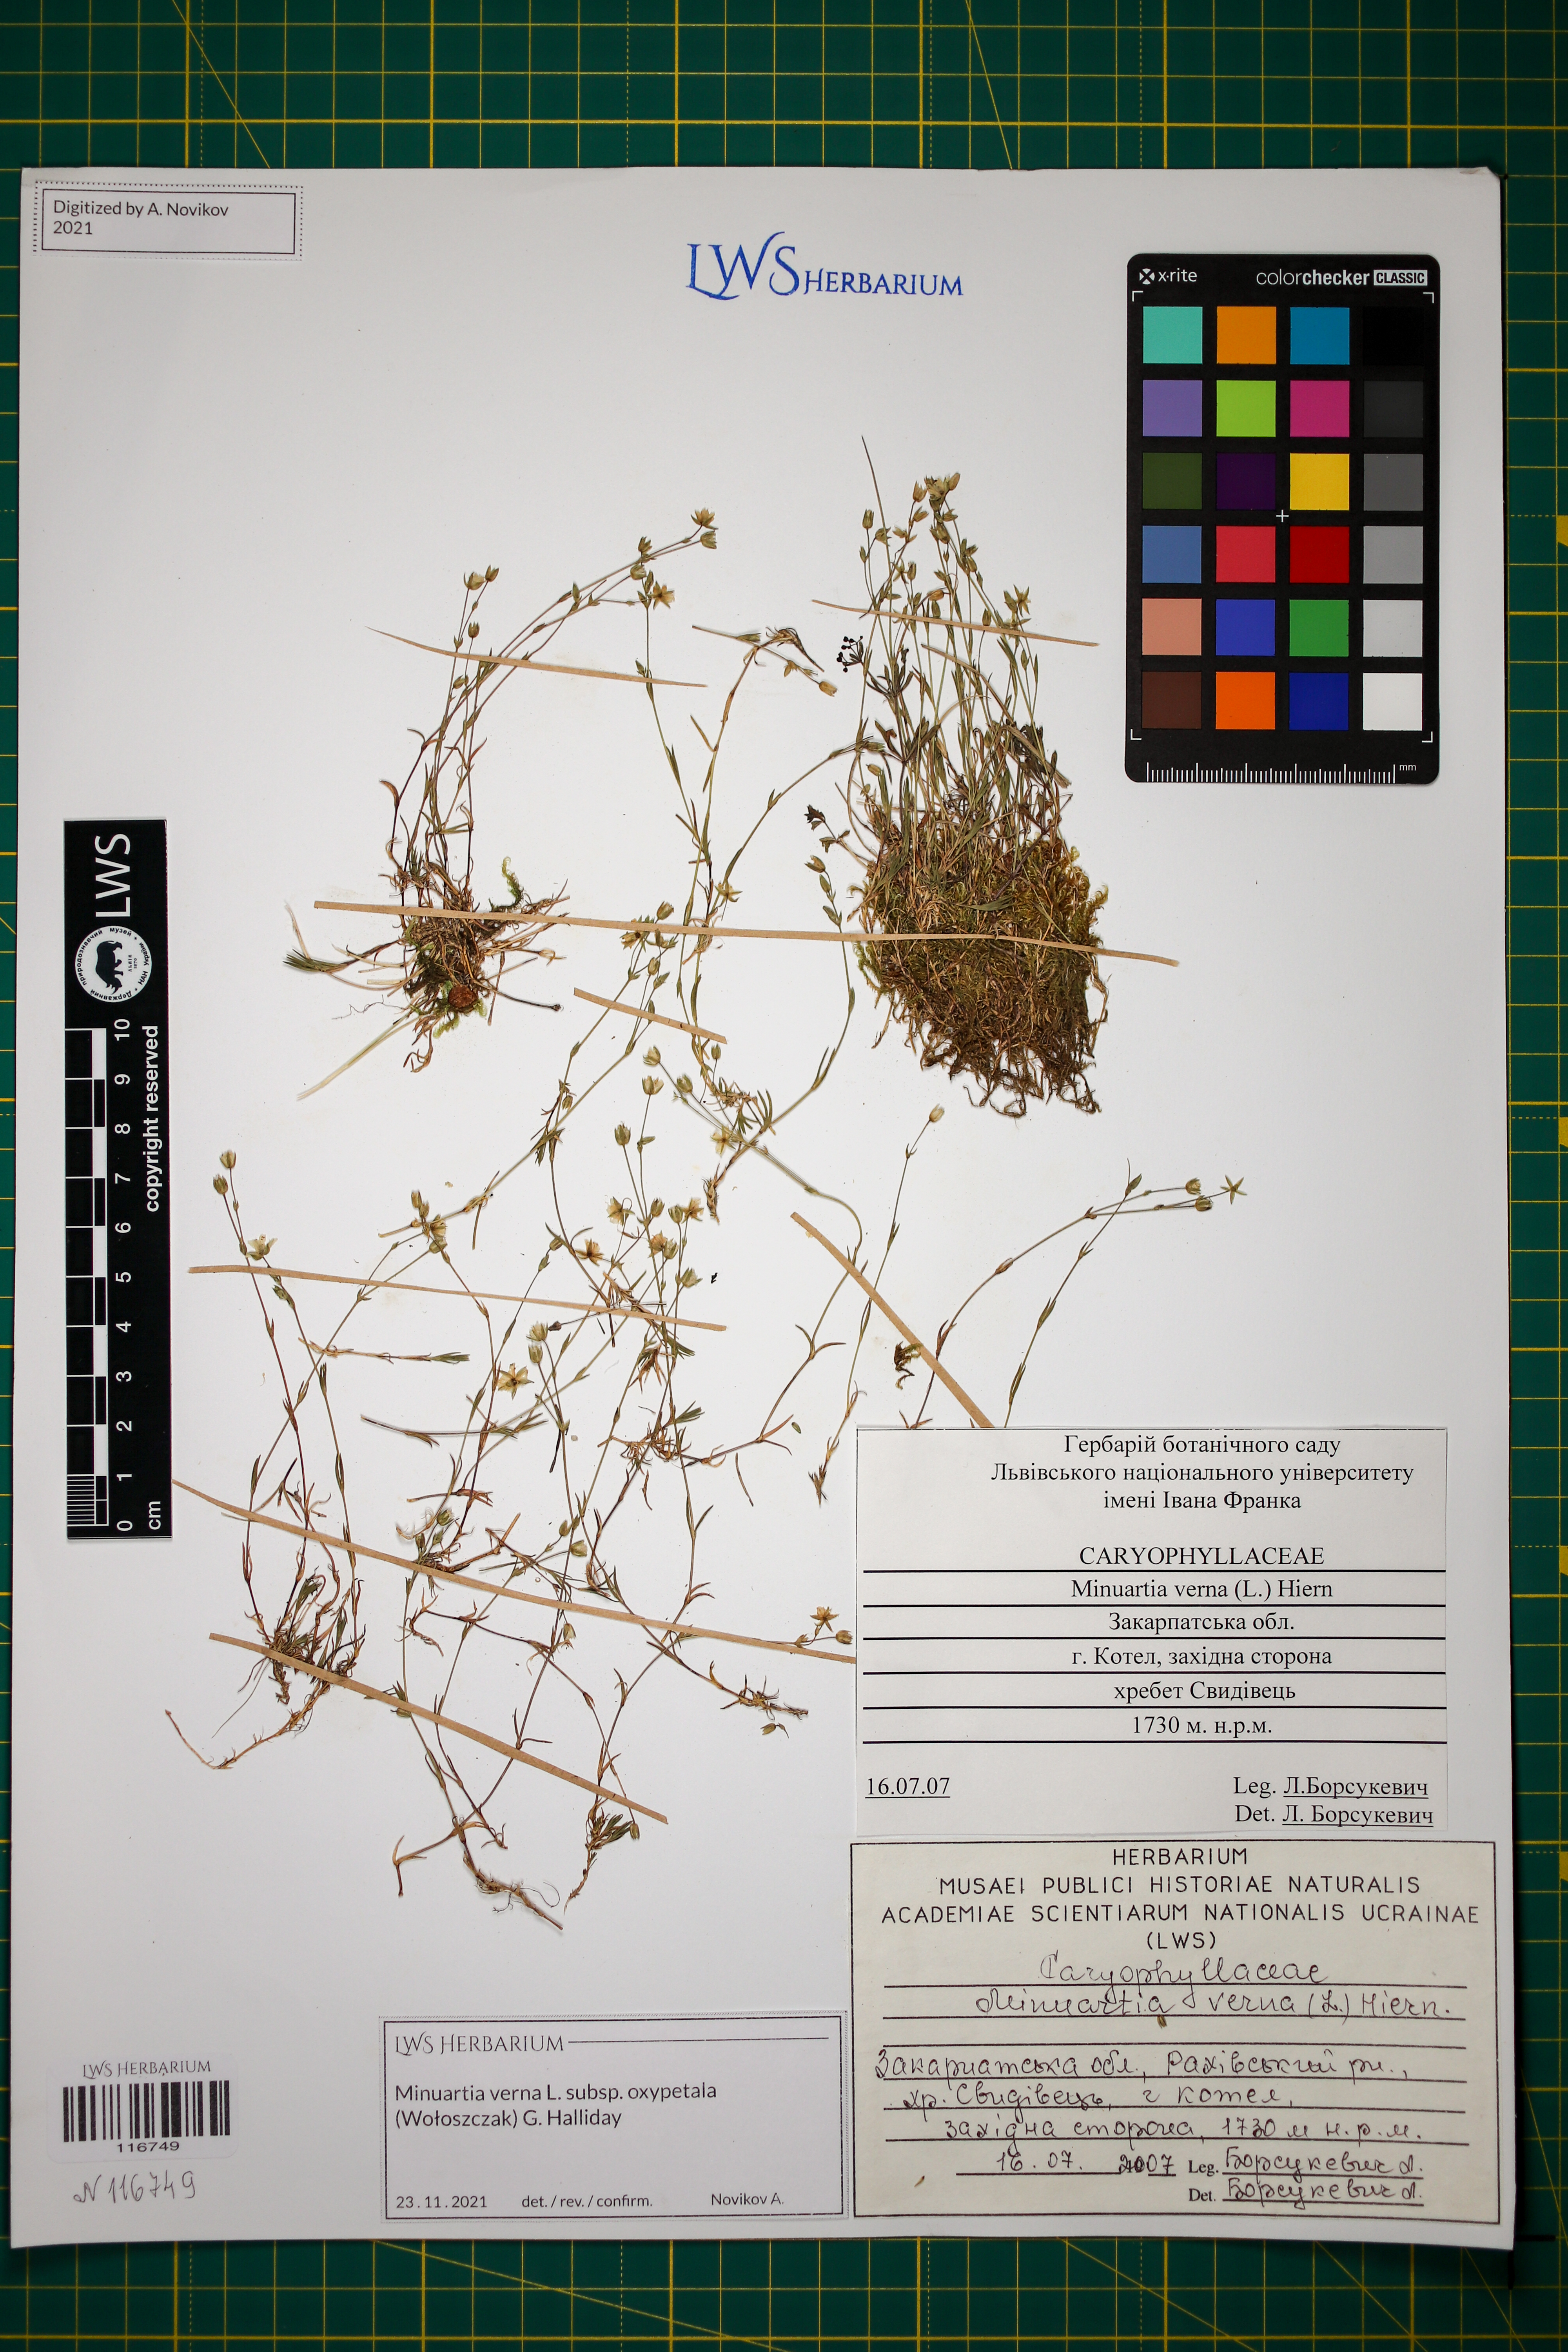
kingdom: Plantae
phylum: Tracheophyta
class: Magnoliopsida
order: Caryophyllales
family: Caryophyllaceae
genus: Minuartia
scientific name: Minuartia pauciflora
